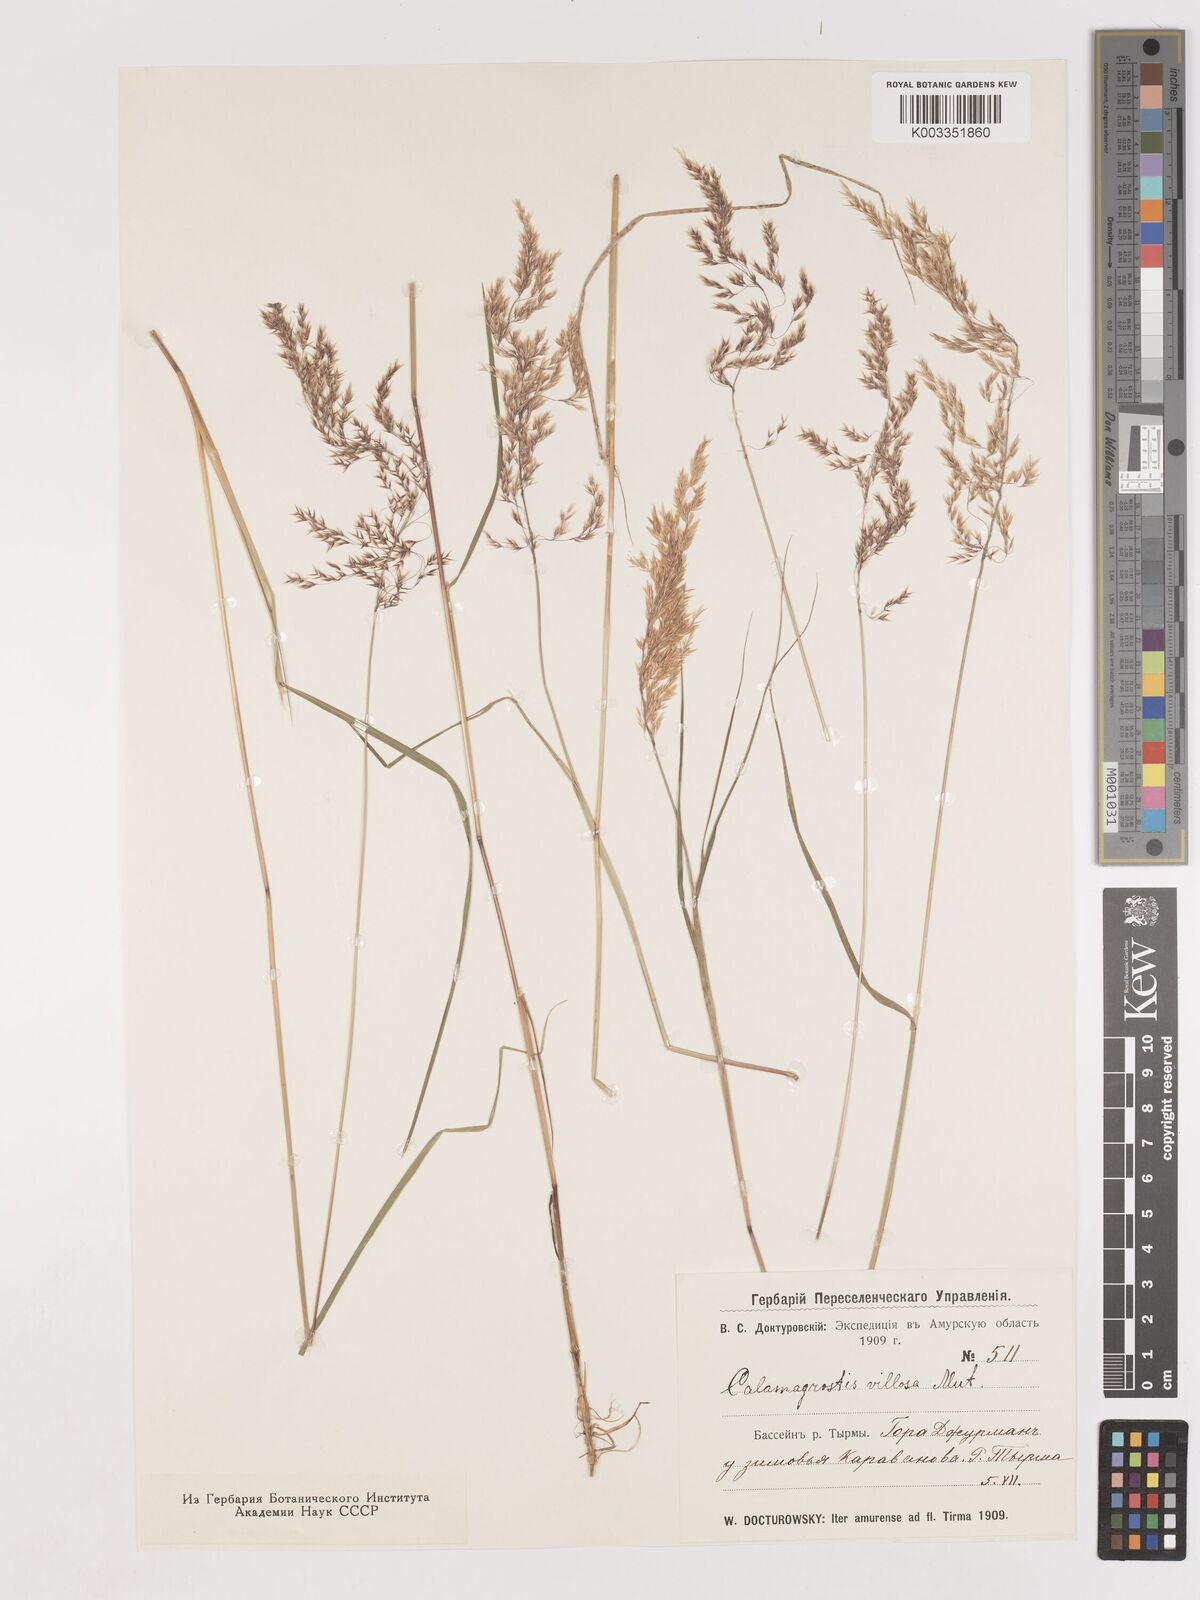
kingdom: Plantae
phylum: Tracheophyta
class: Liliopsida
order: Poales
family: Poaceae
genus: Calamagrostis
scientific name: Calamagrostis villosa
